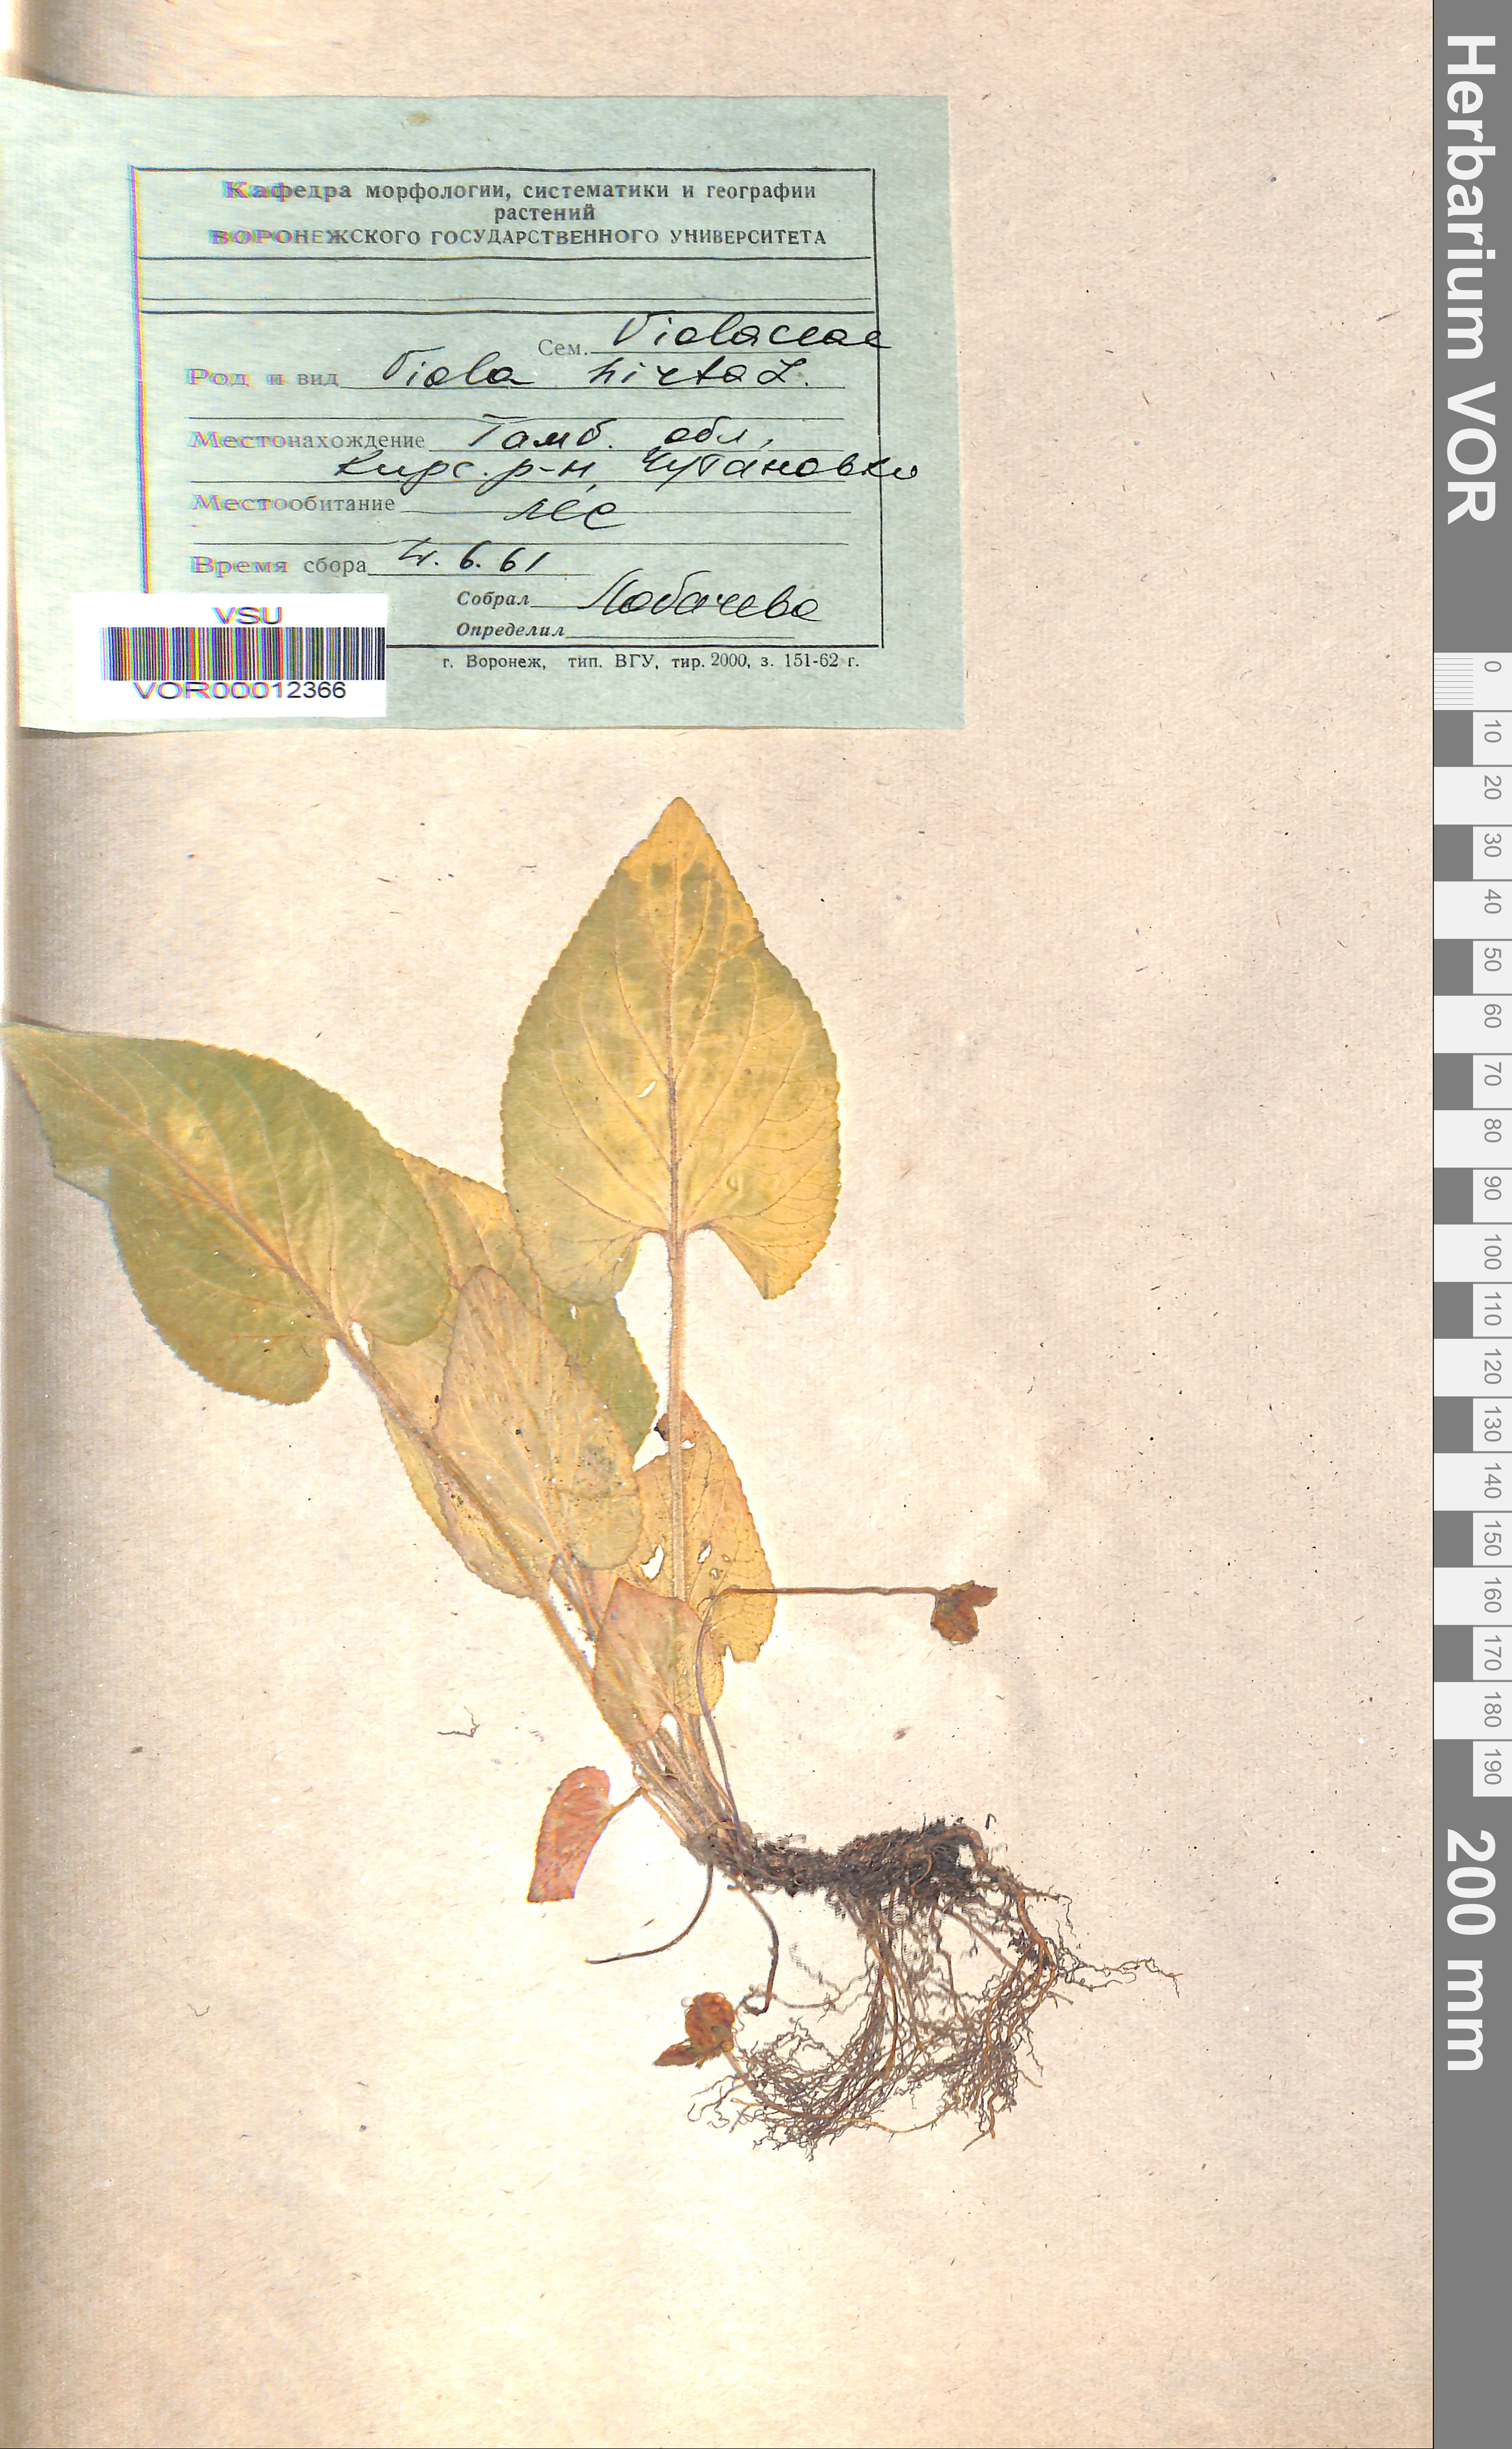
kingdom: Plantae
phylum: Tracheophyta
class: Magnoliopsida
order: Malpighiales
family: Violaceae
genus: Viola
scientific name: Viola hirta
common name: Hairy violet
